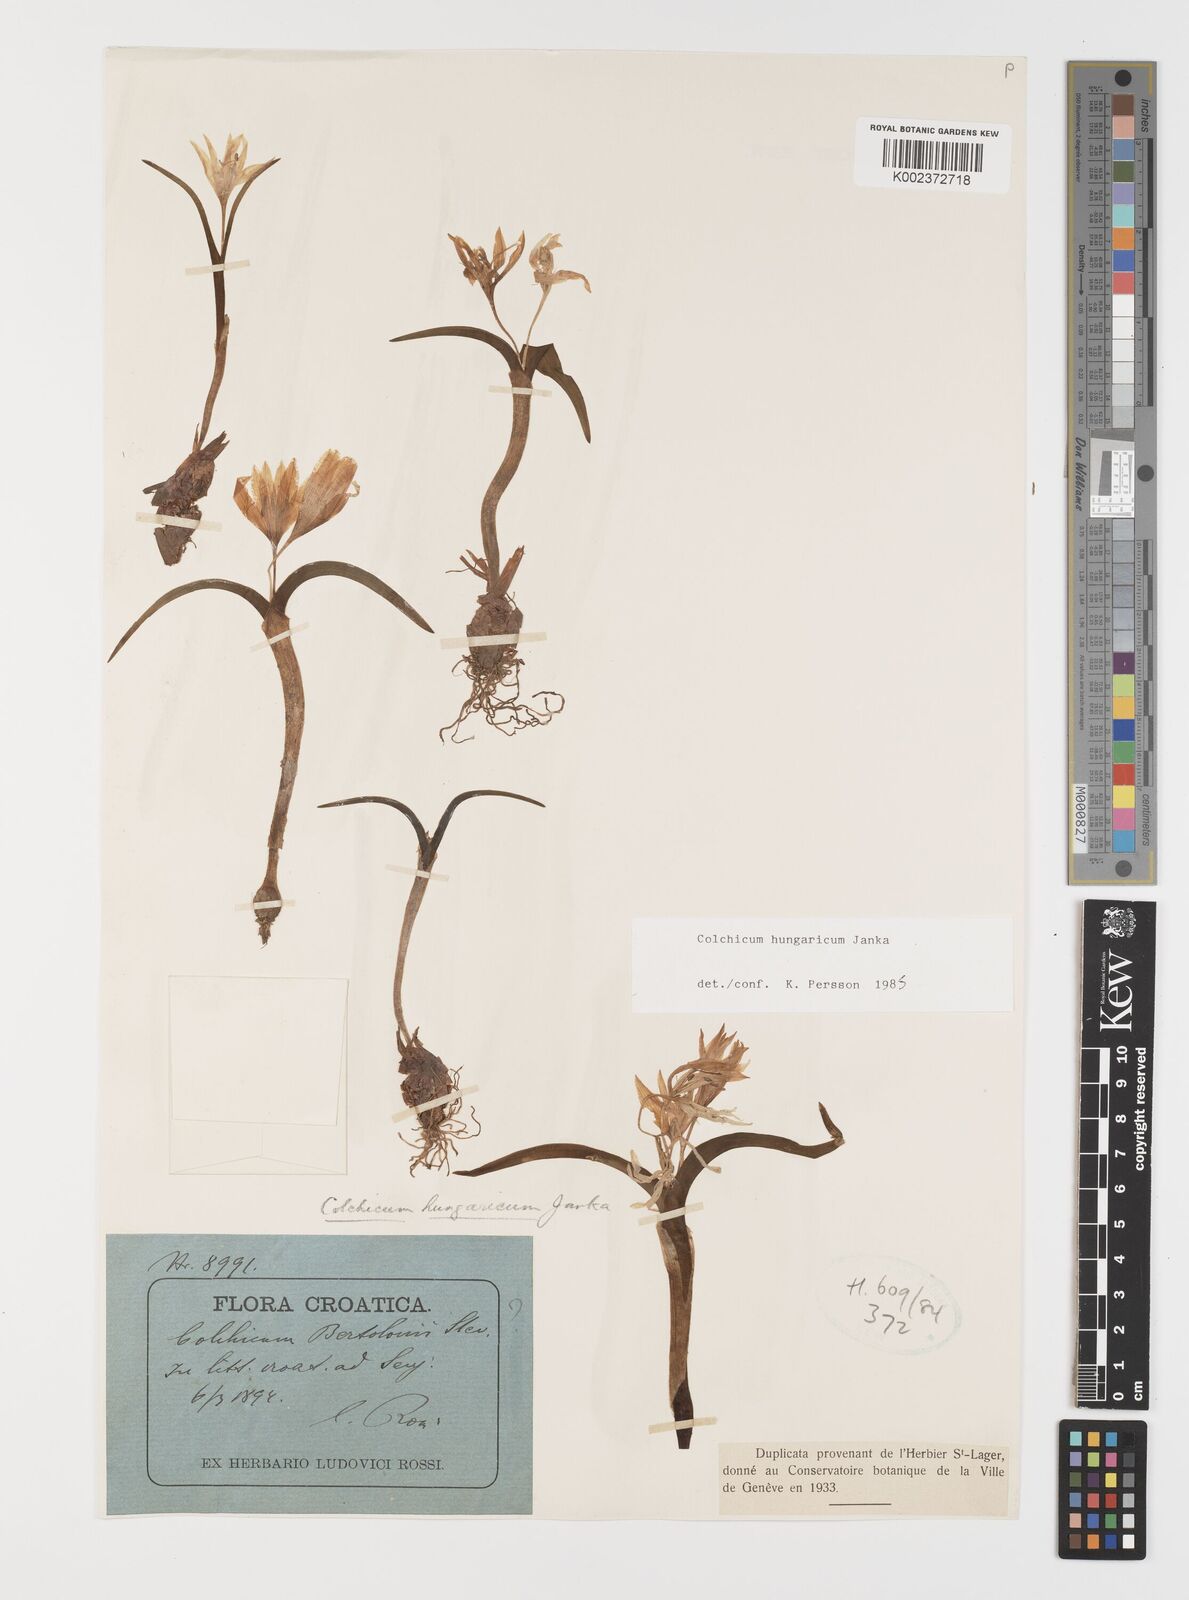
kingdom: Plantae
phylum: Tracheophyta
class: Liliopsida
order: Liliales
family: Colchicaceae
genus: Colchicum
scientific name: Colchicum hungaricum
